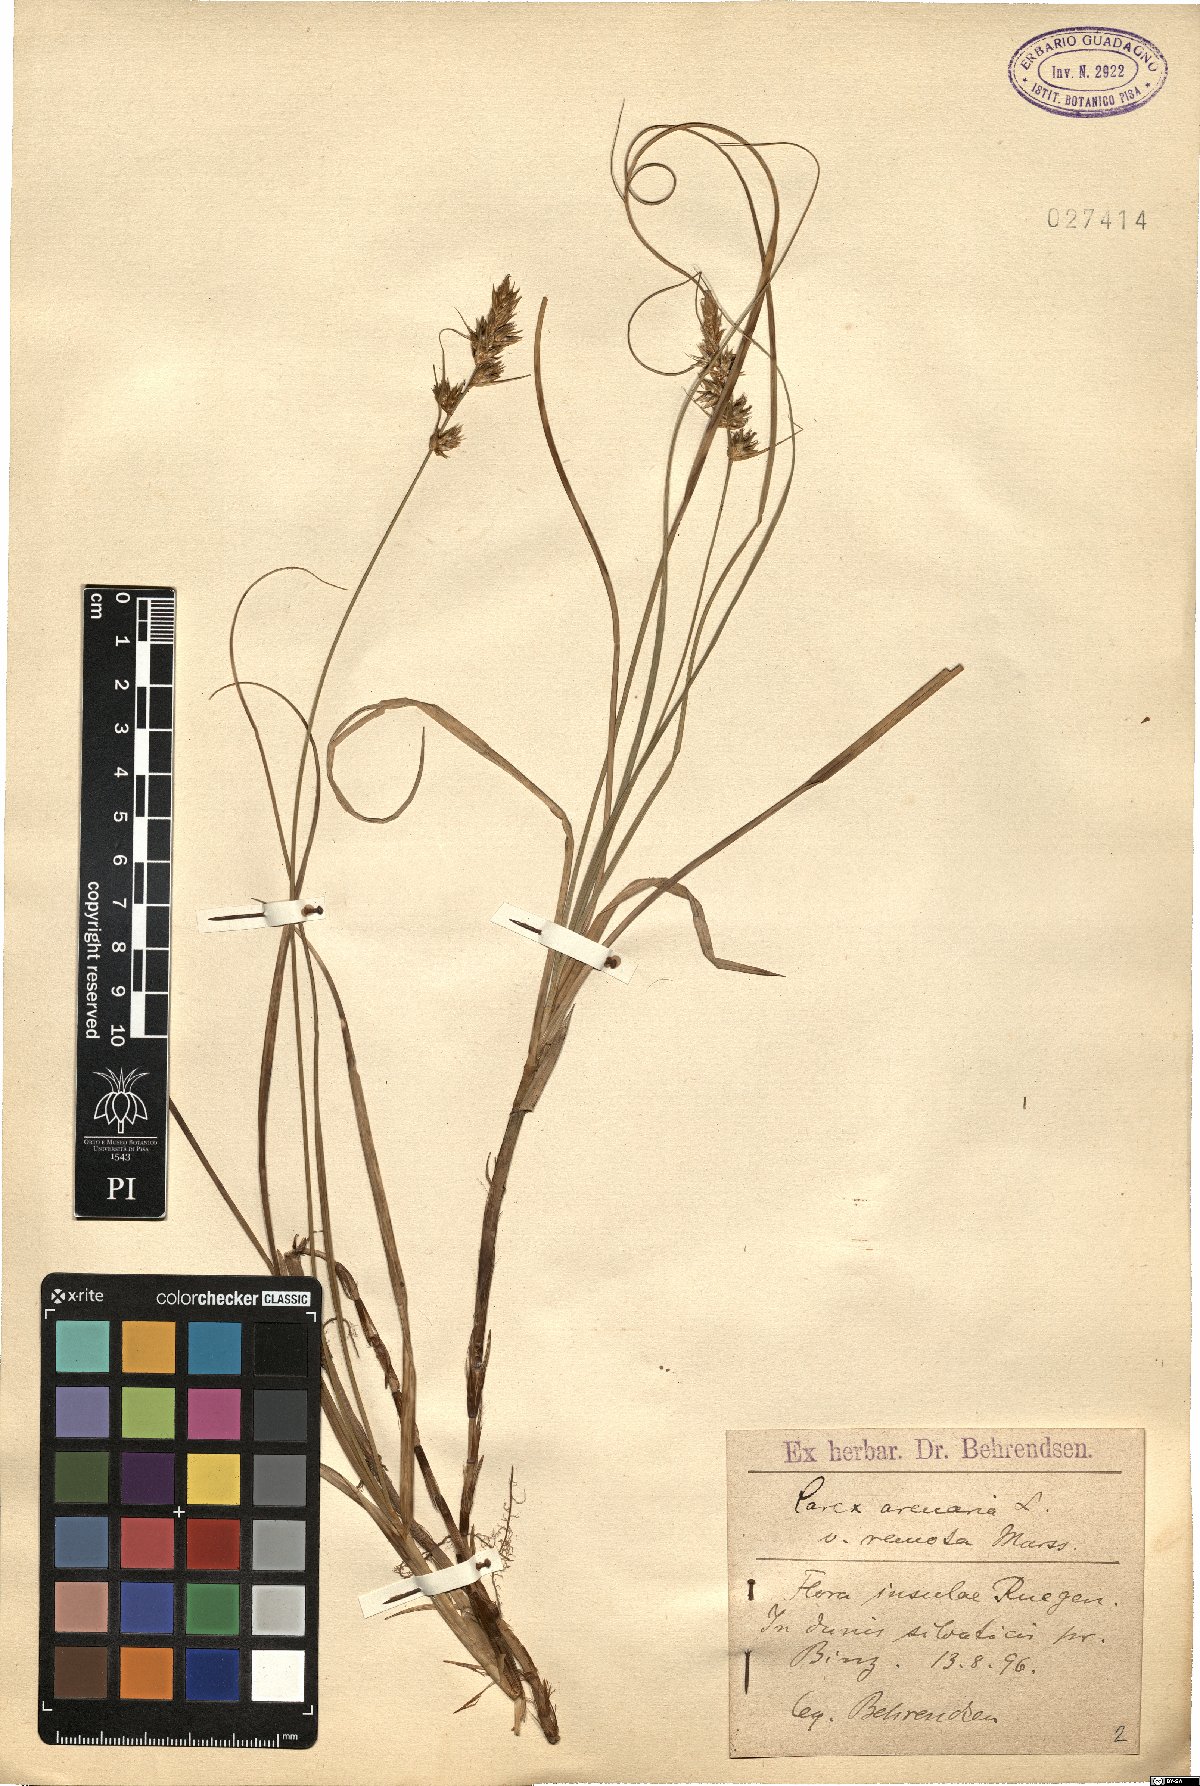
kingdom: Plantae
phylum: Tracheophyta
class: Liliopsida
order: Poales
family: Cyperaceae
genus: Carex
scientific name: Carex arenaria
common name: Sand sedge
